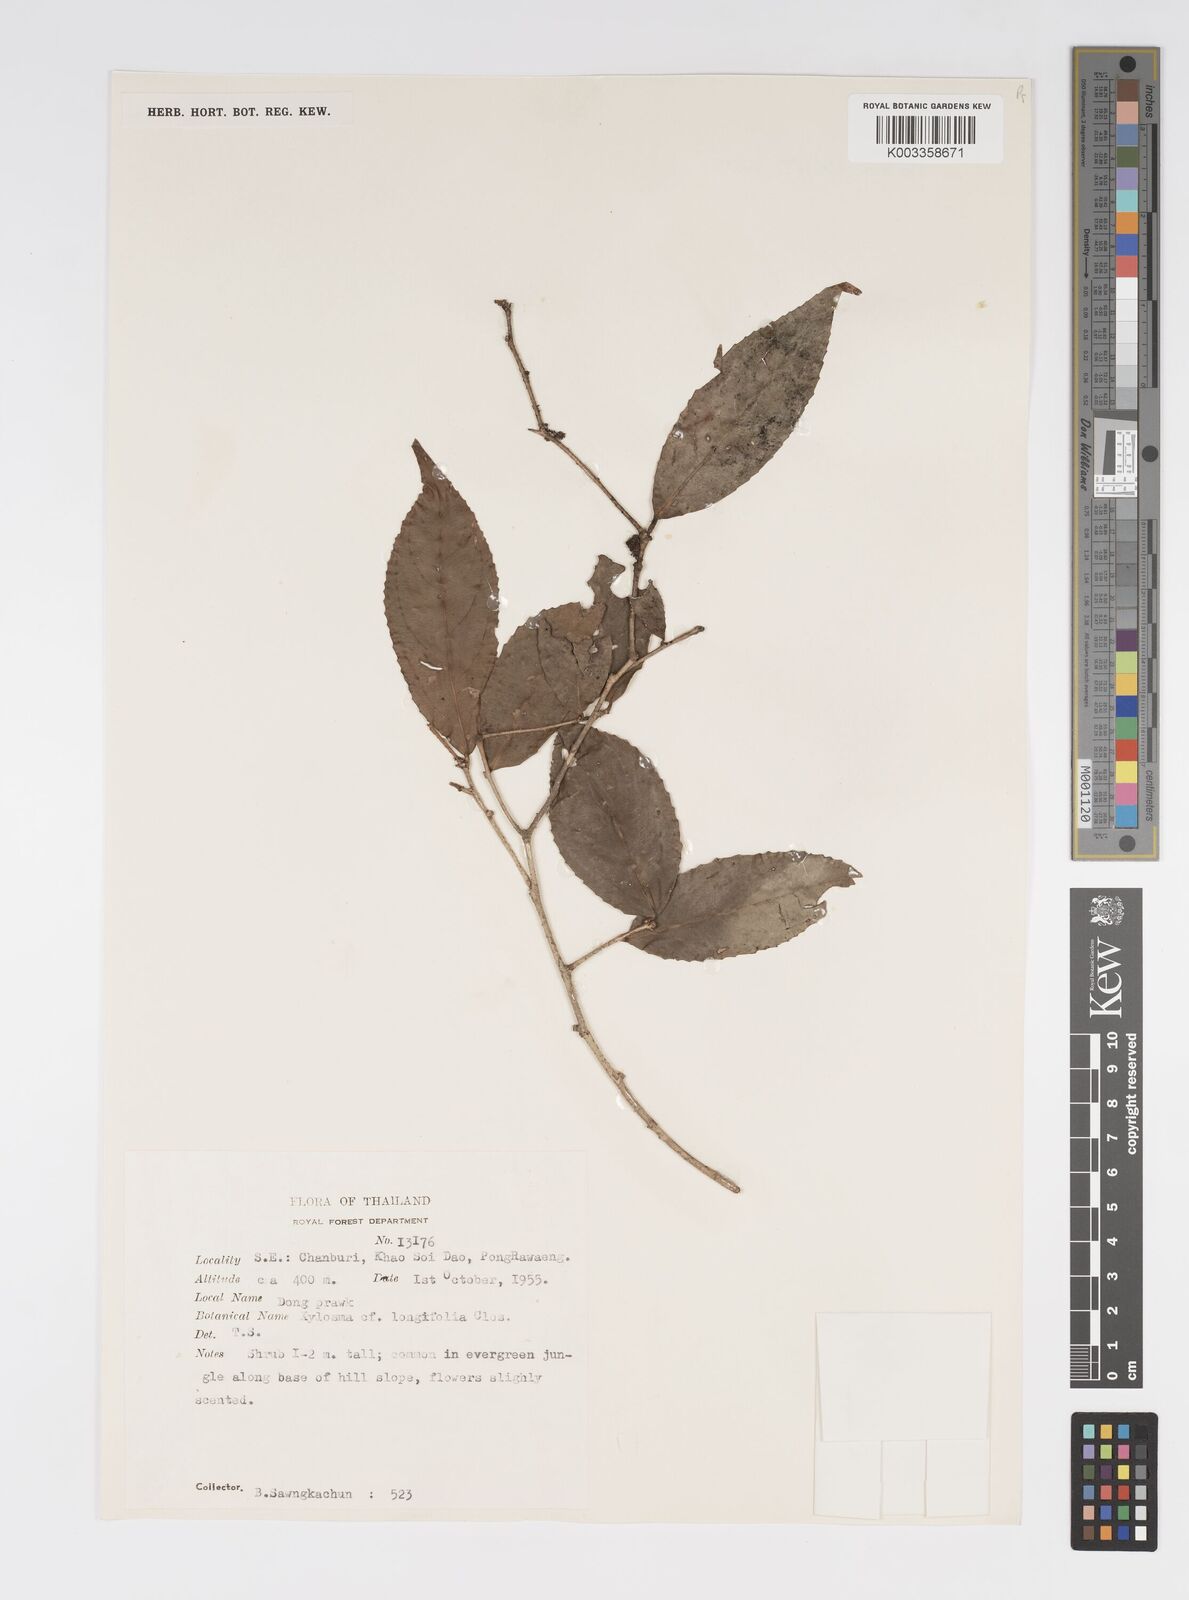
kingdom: Plantae
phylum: Tracheophyta
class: Magnoliopsida
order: Malpighiales
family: Salicaceae
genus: Xylosma
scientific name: Xylosma longifolia
